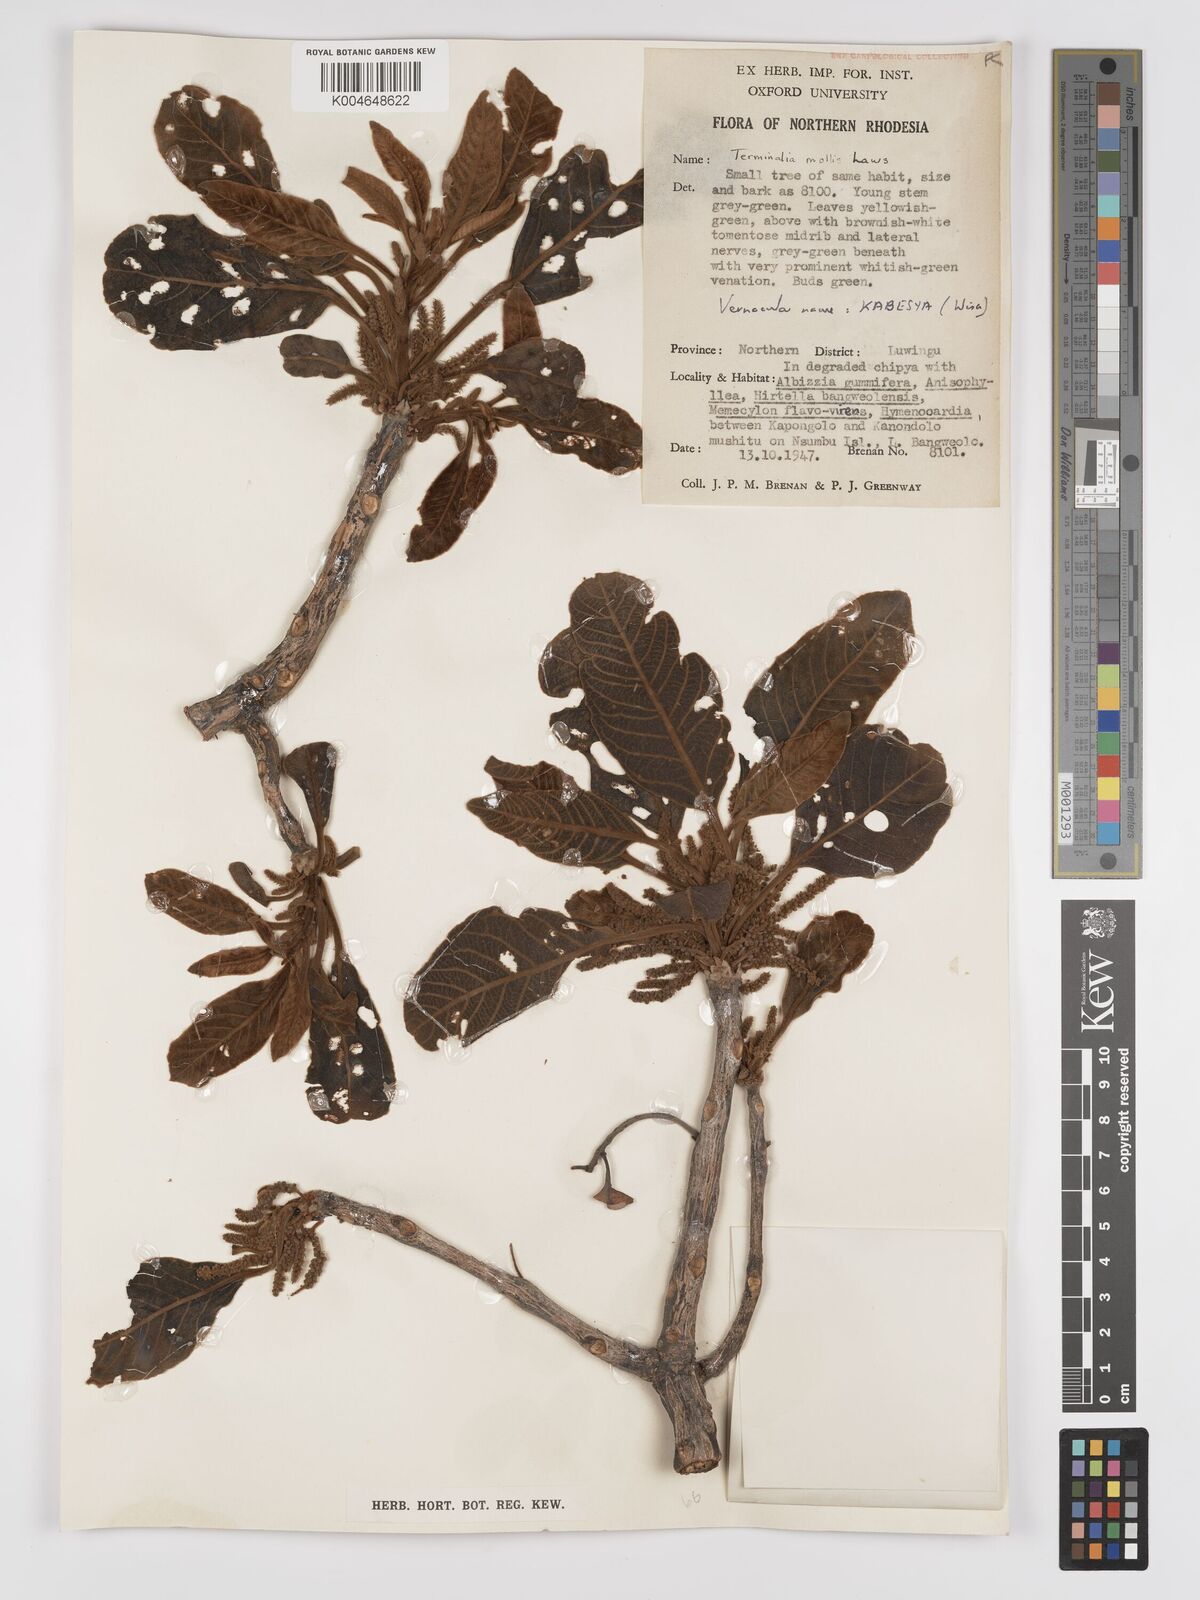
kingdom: Plantae
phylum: Tracheophyta
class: Magnoliopsida
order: Myrtales
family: Combretaceae
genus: Terminalia
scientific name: Terminalia
